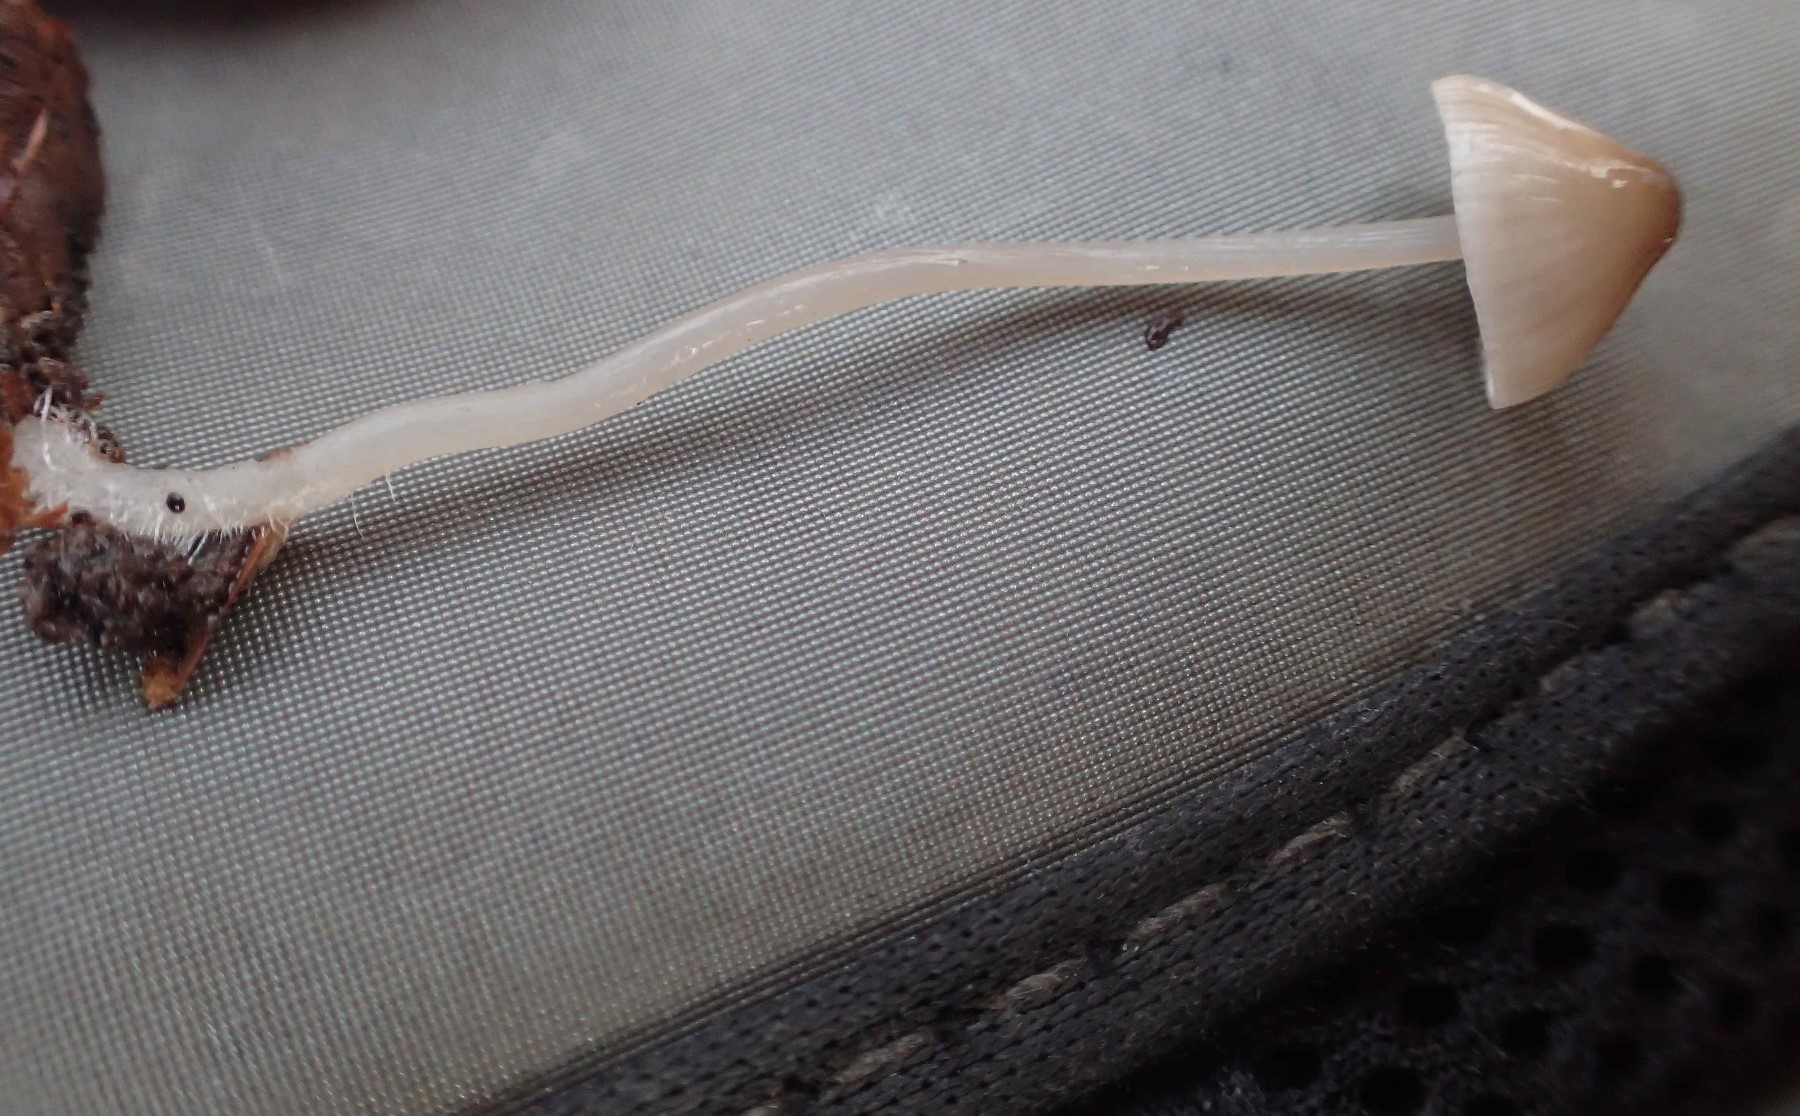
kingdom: Fungi
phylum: Basidiomycota
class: Agaricomycetes
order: Agaricales
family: Mycenaceae
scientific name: Mycenaceae
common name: huesvampfamilien
